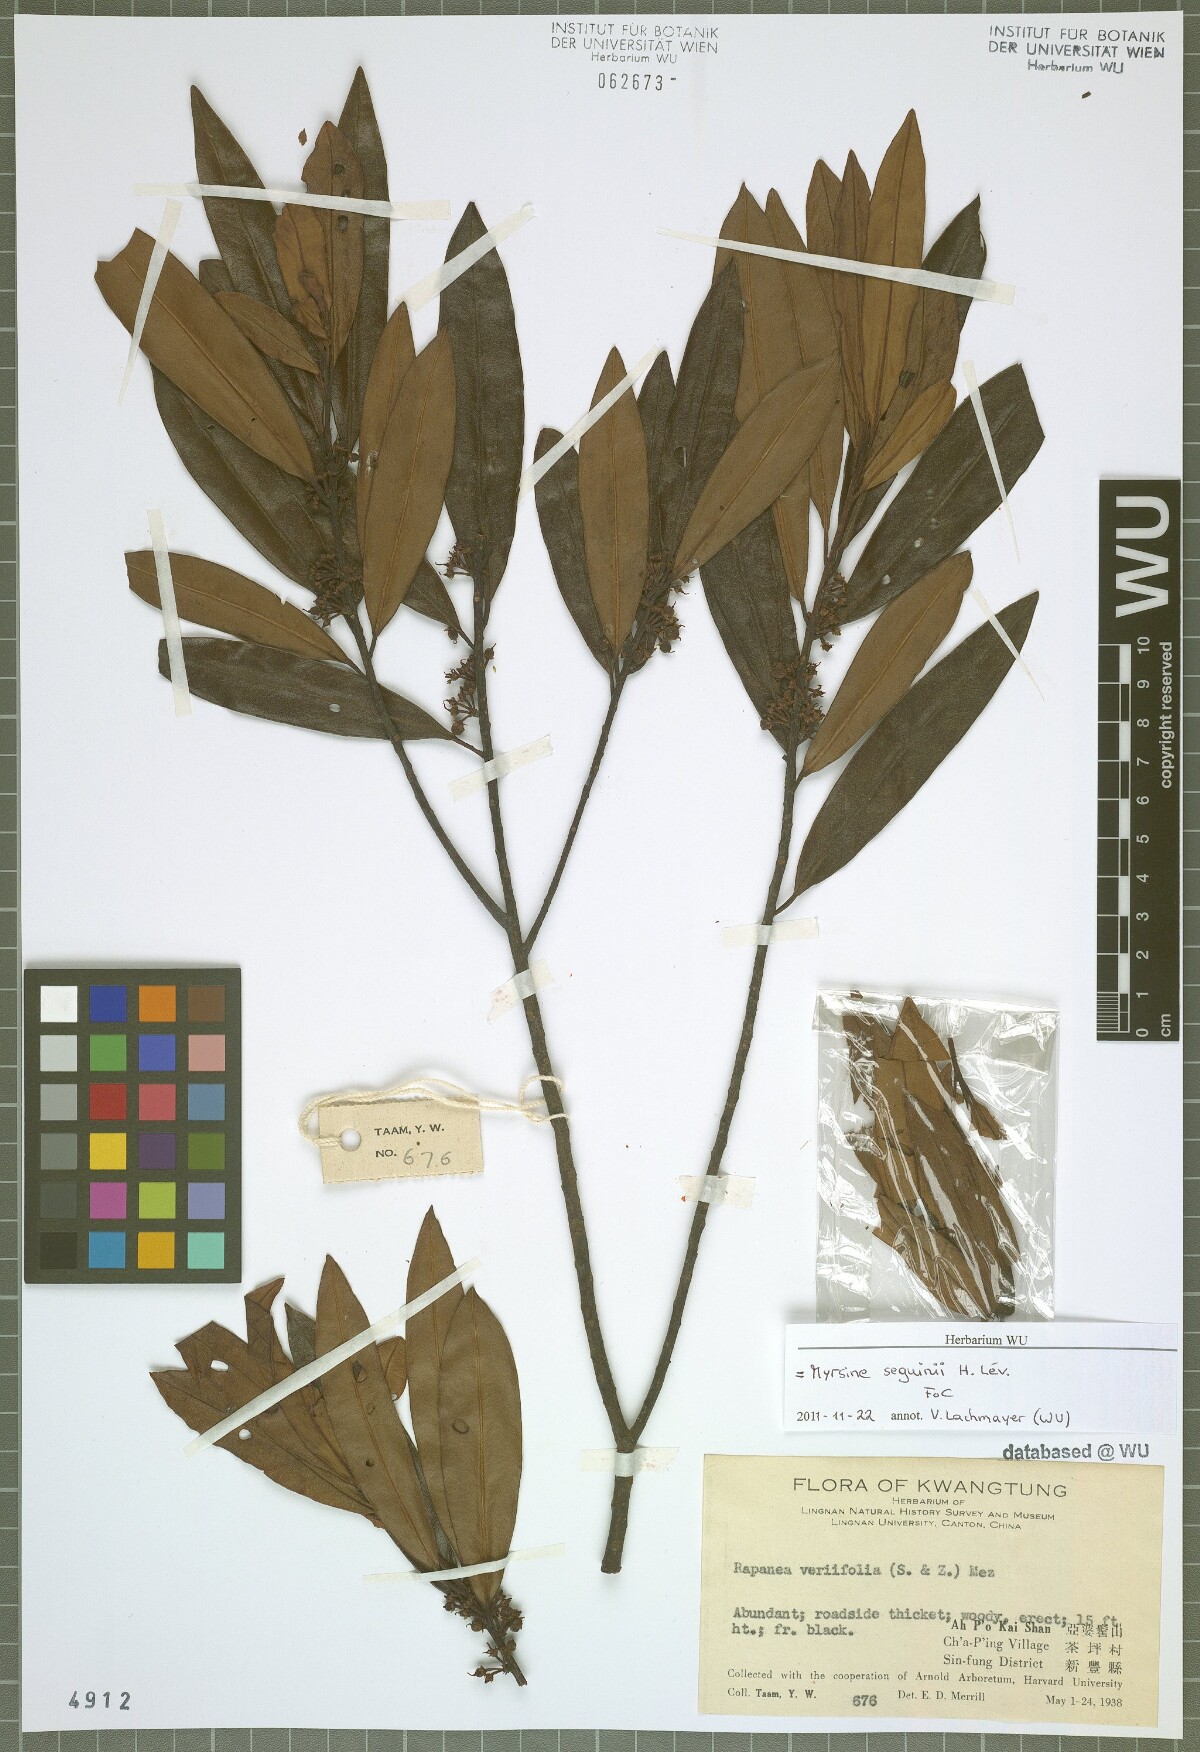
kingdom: Plantae
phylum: Tracheophyta
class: Magnoliopsida
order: Ericales
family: Primulaceae
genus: Myrsine
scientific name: Myrsine seguinii
